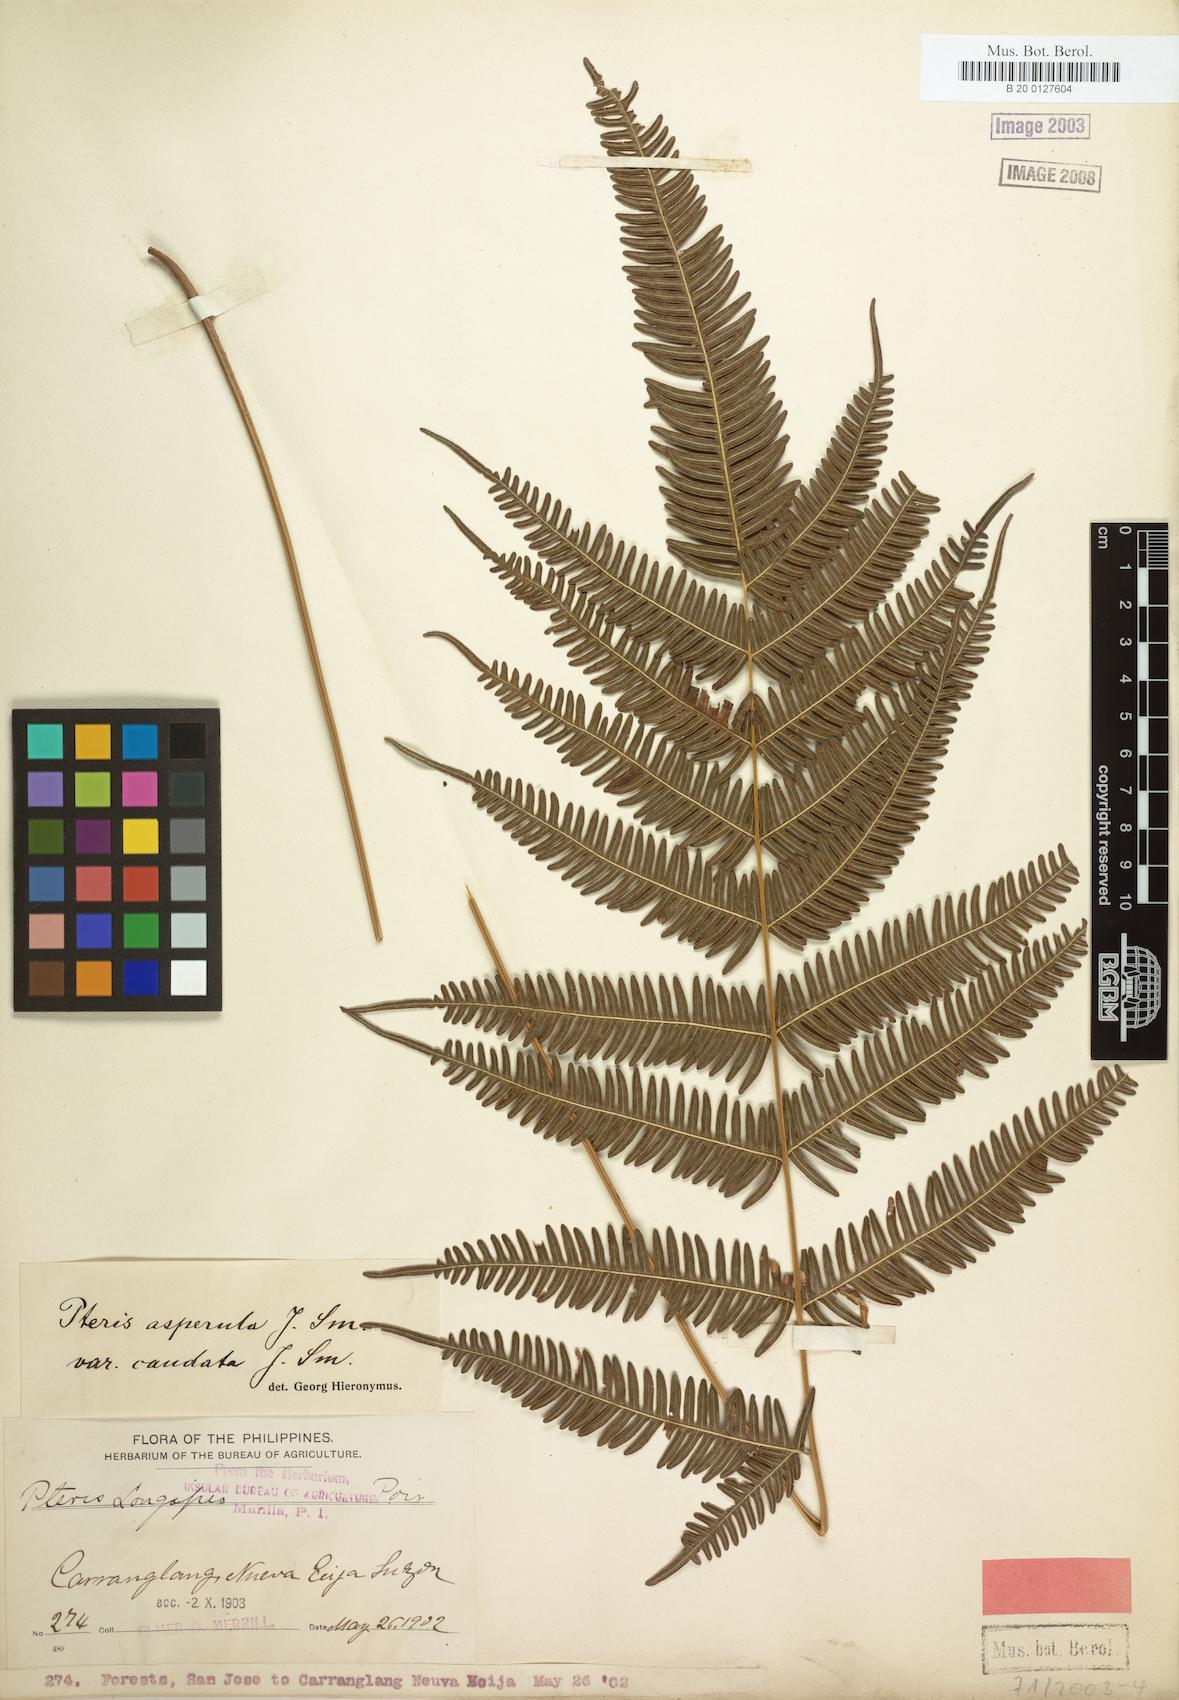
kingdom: Plantae
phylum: Tracheophyta
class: Polypodiopsida
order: Polypodiales
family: Pteridaceae
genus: Pteris
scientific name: Pteris oppositipinnata
